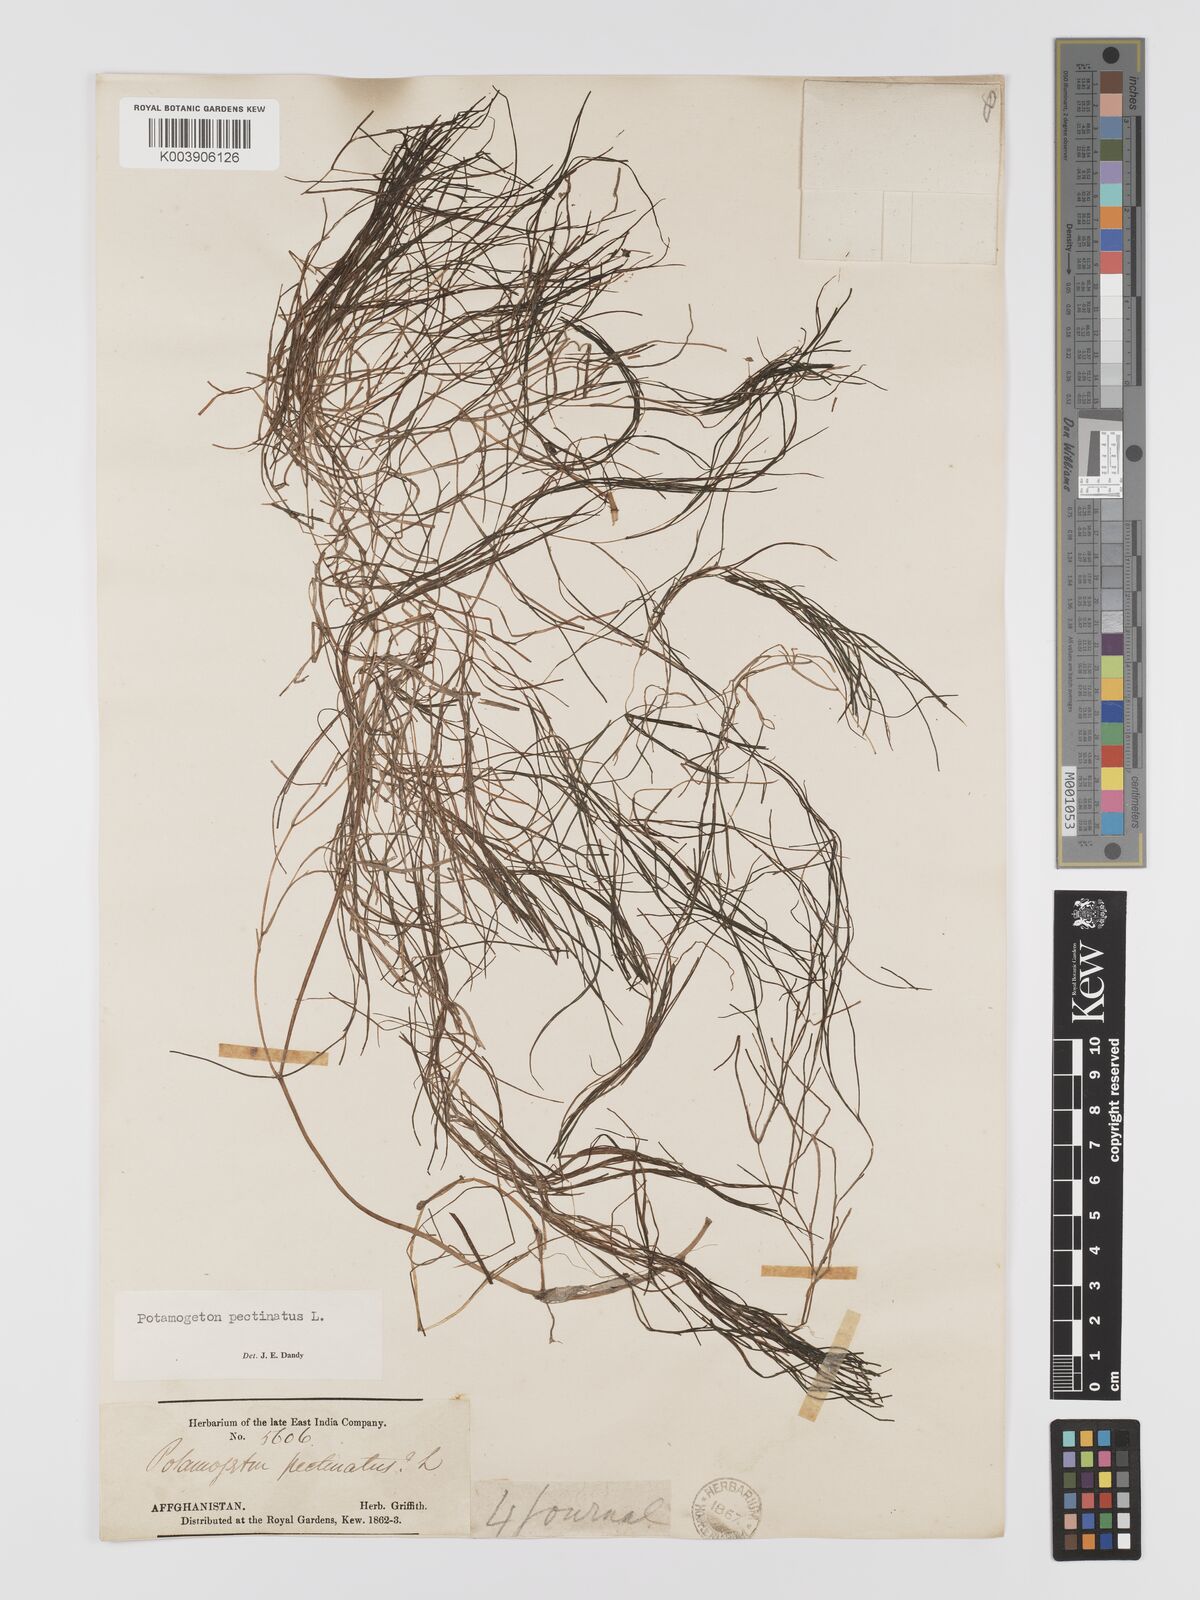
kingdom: Plantae
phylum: Tracheophyta
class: Liliopsida
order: Alismatales
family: Potamogetonaceae
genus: Stuckenia
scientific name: Stuckenia pectinata
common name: Sago pondweed
